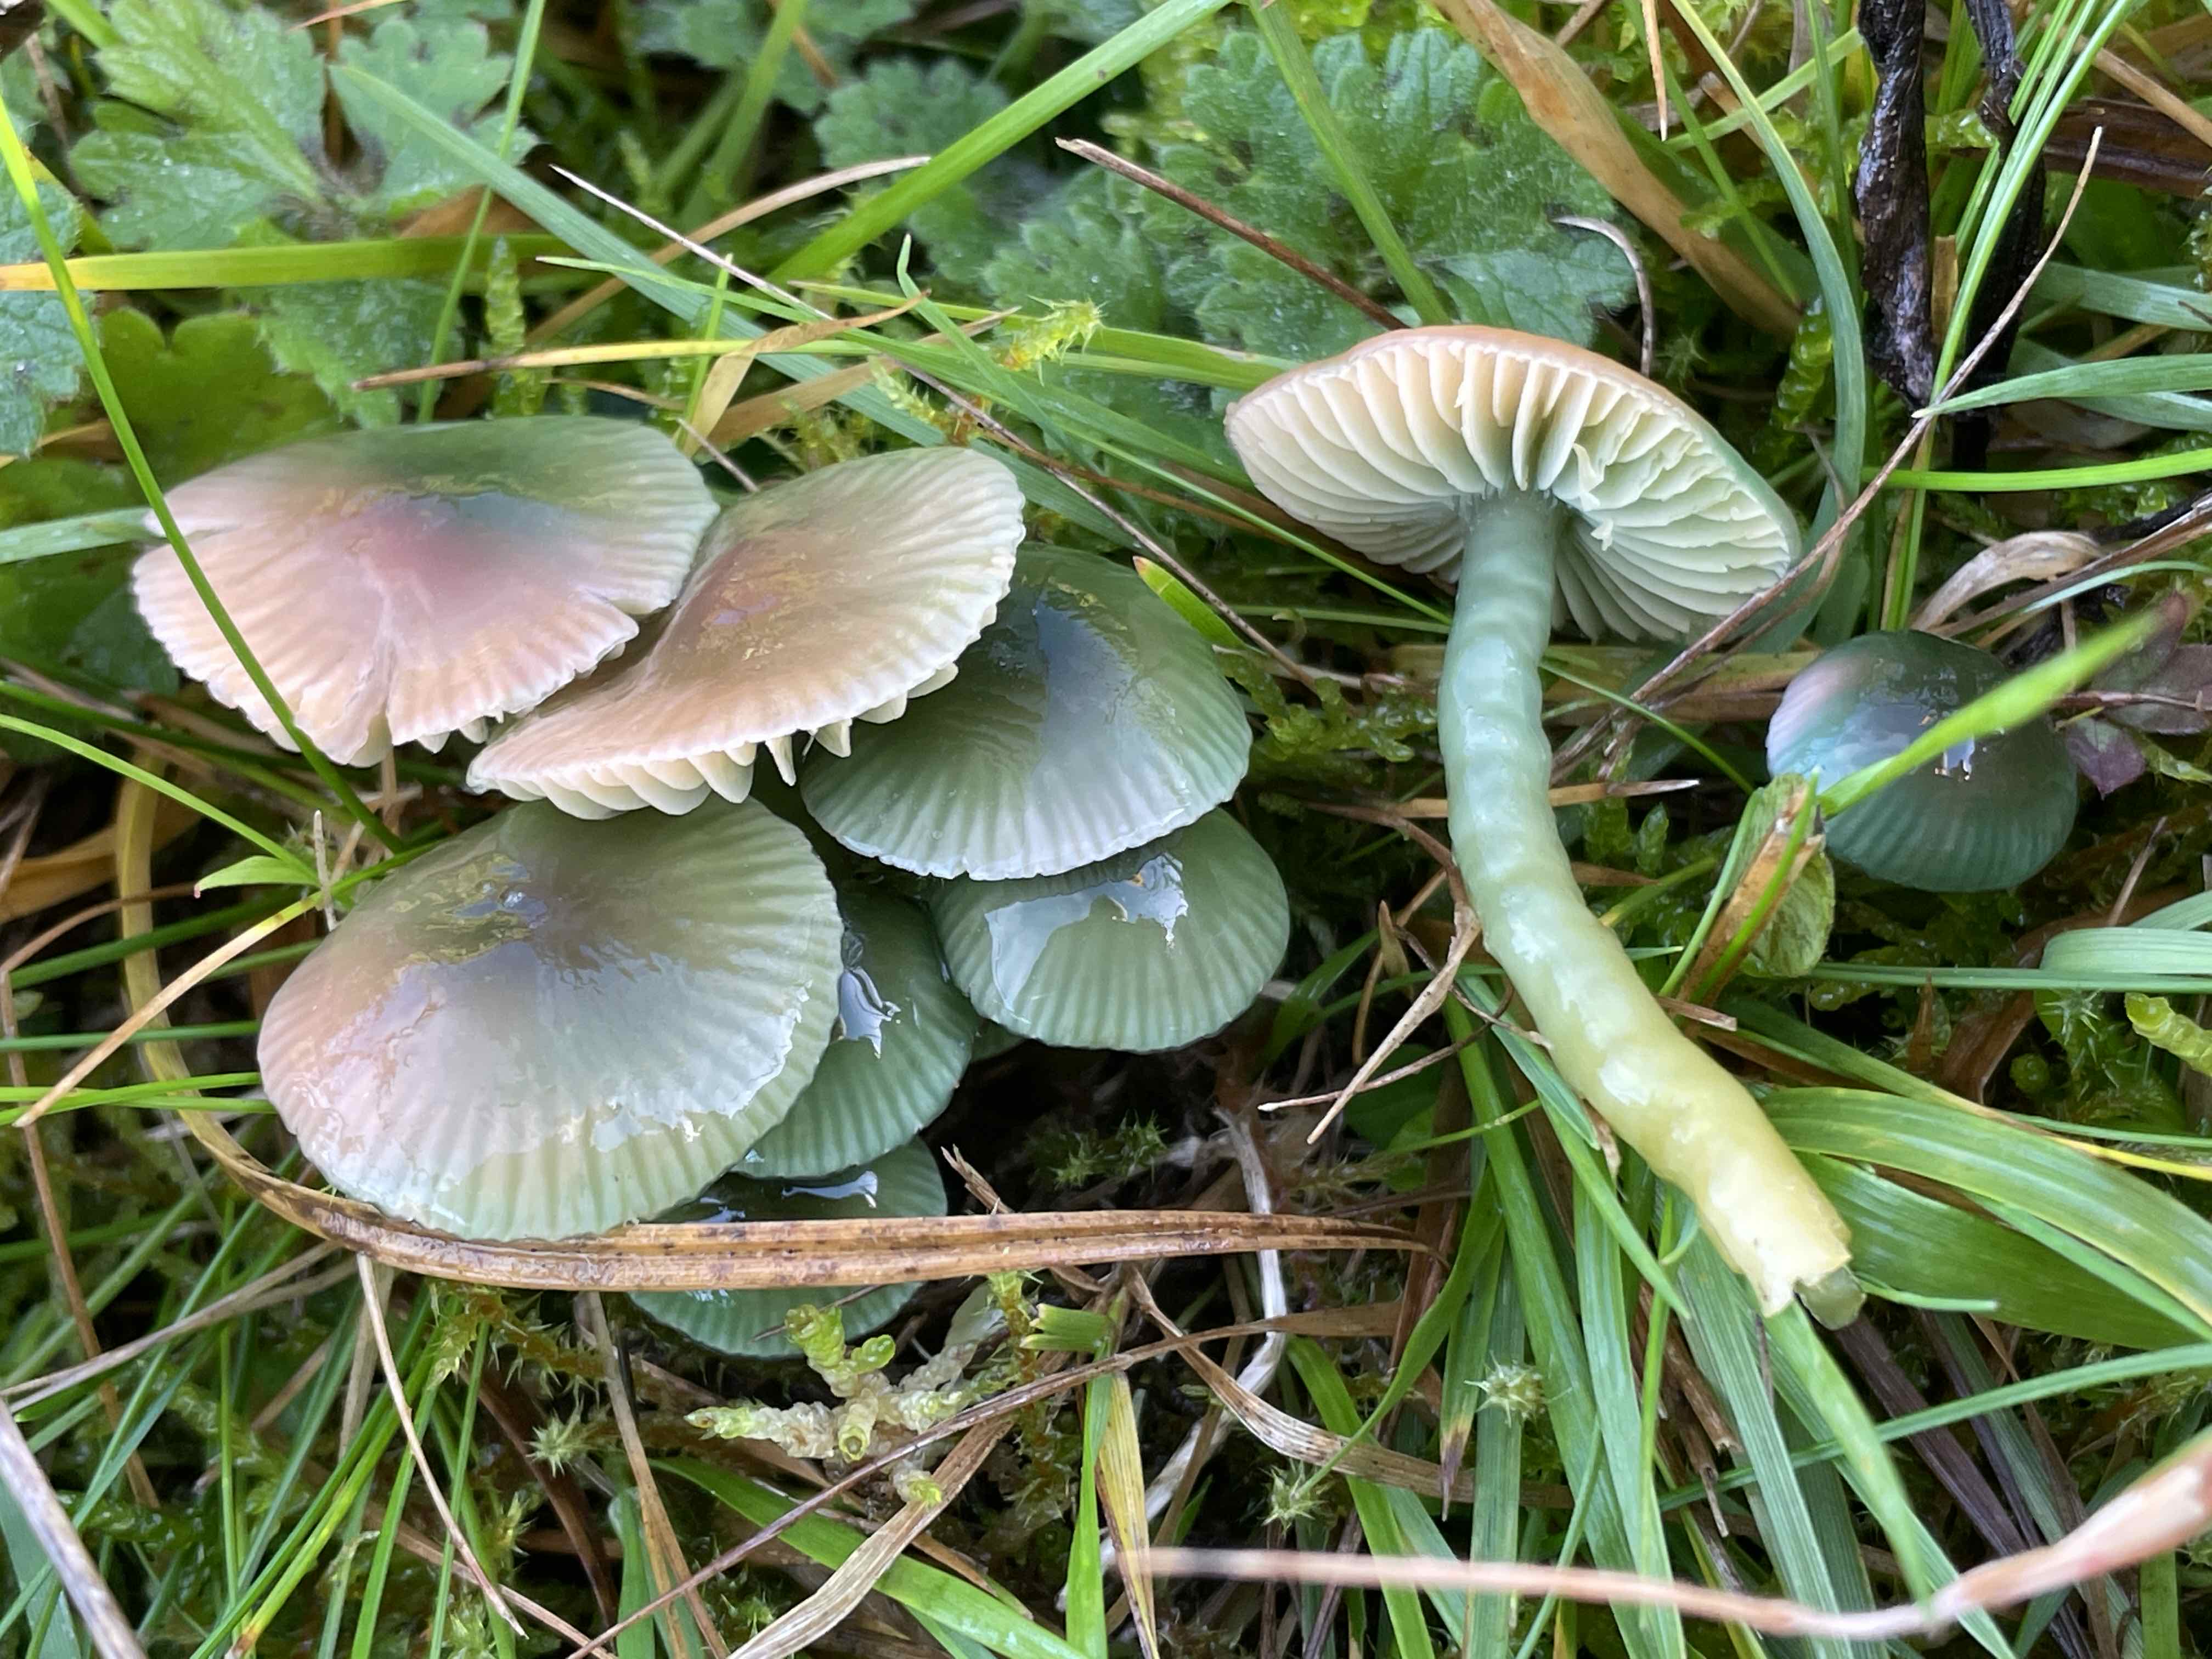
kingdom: Fungi
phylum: Basidiomycota
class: Agaricomycetes
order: Agaricales
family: Hygrophoraceae
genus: Gliophorus
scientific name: Gliophorus psittacinus
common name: papegøje-vokshat
